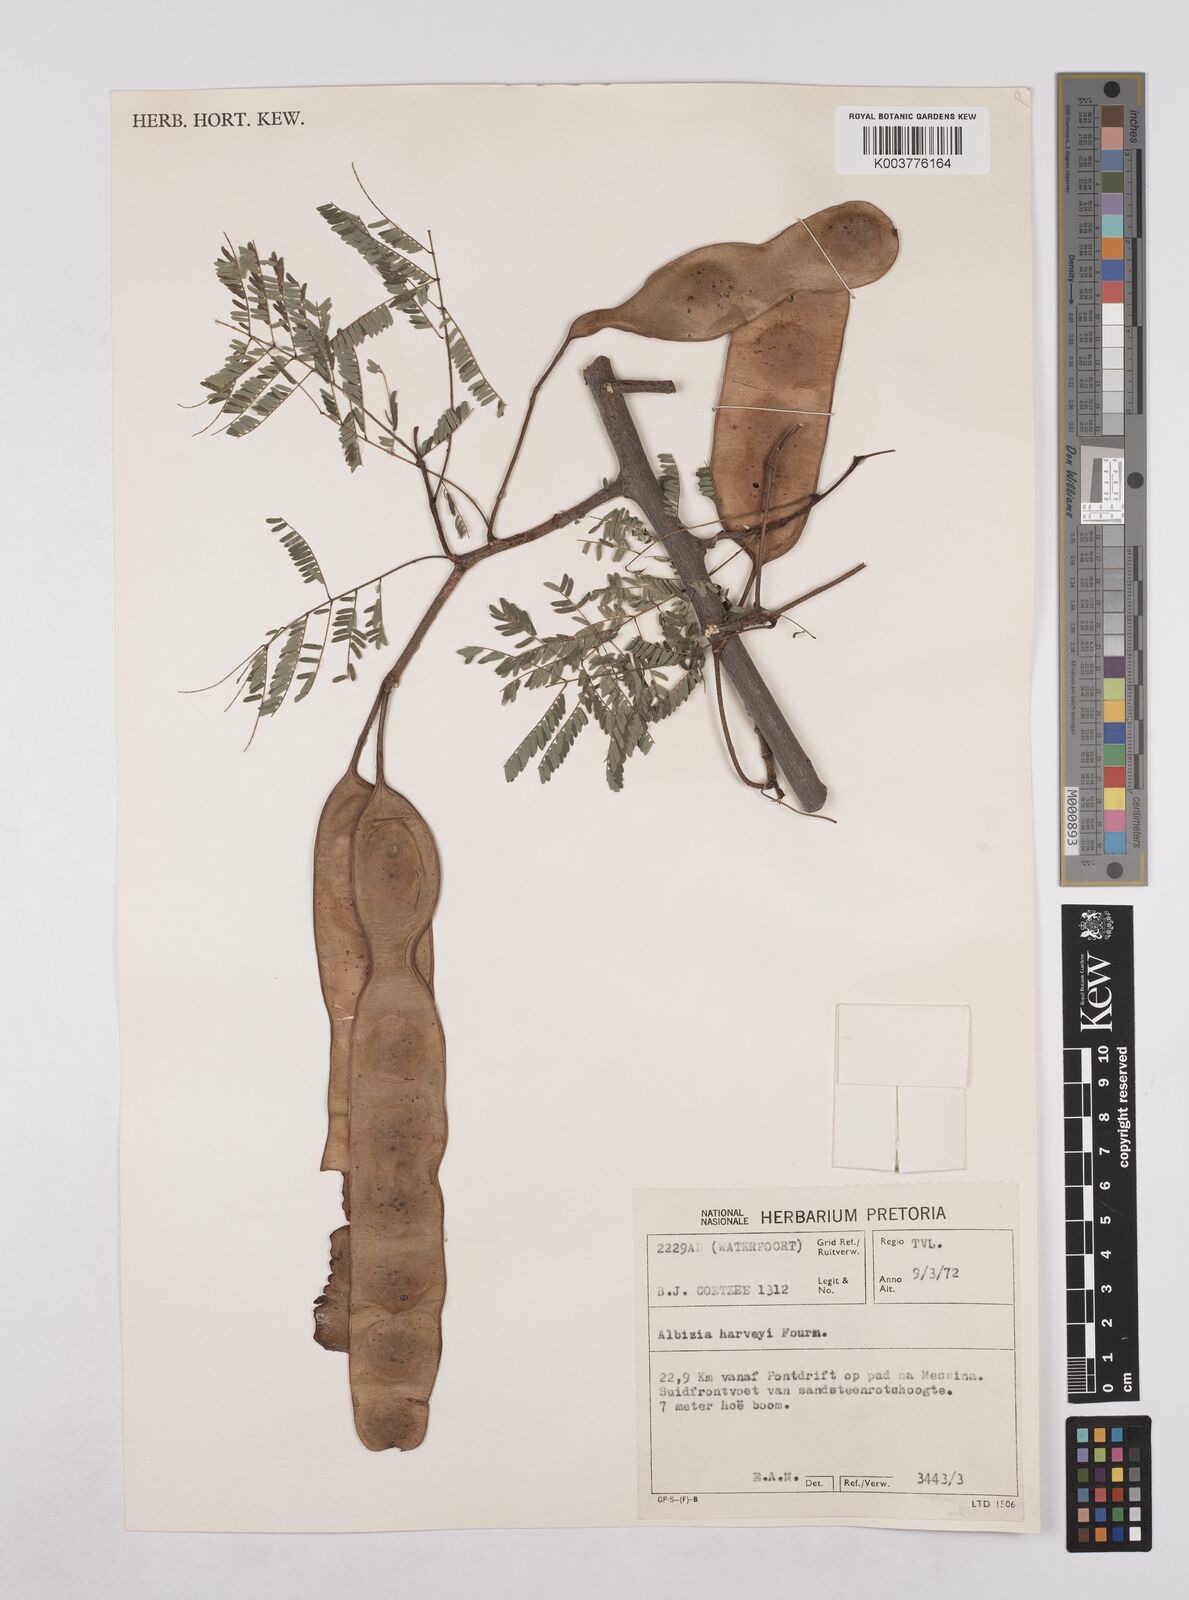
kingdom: Plantae
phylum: Tracheophyta
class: Magnoliopsida
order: Fabales
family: Fabaceae
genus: Albizia
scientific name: Albizia harveyi
